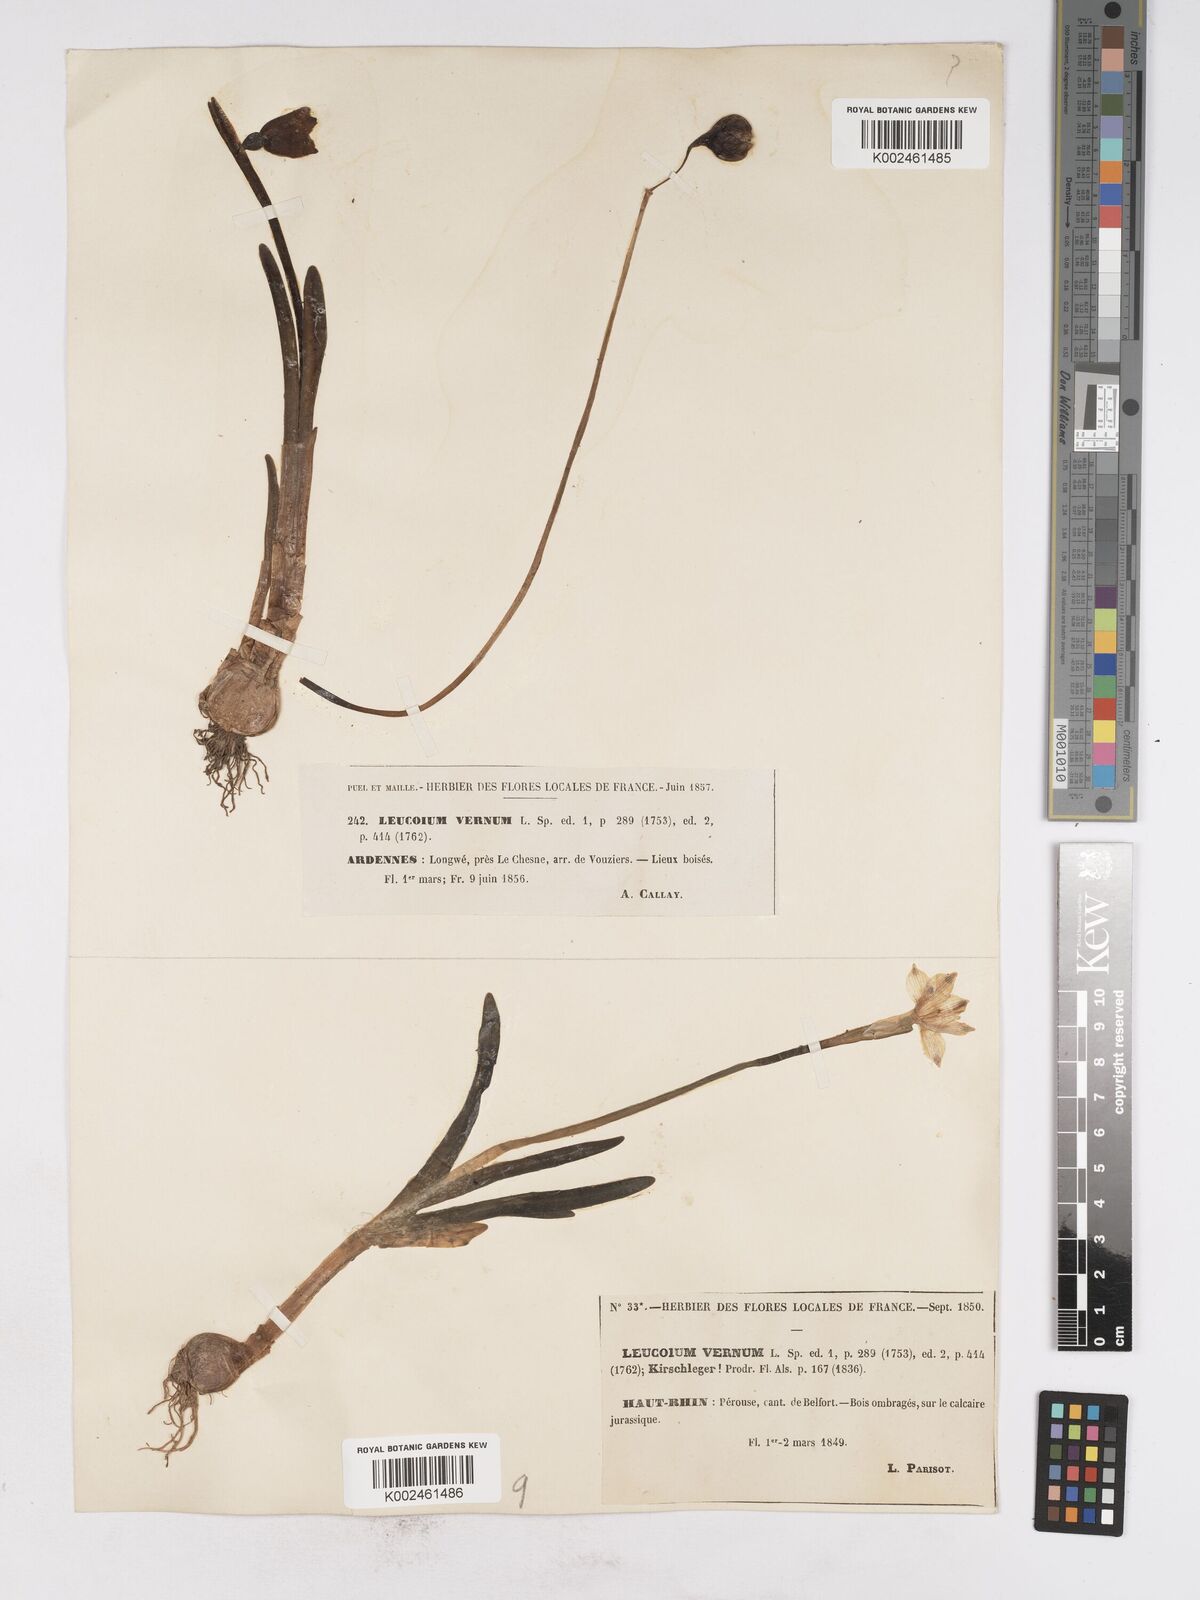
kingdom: Plantae
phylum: Tracheophyta
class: Liliopsida
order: Asparagales
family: Amaryllidaceae
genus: Leucojum
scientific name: Leucojum vernum
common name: Spring snowflake
